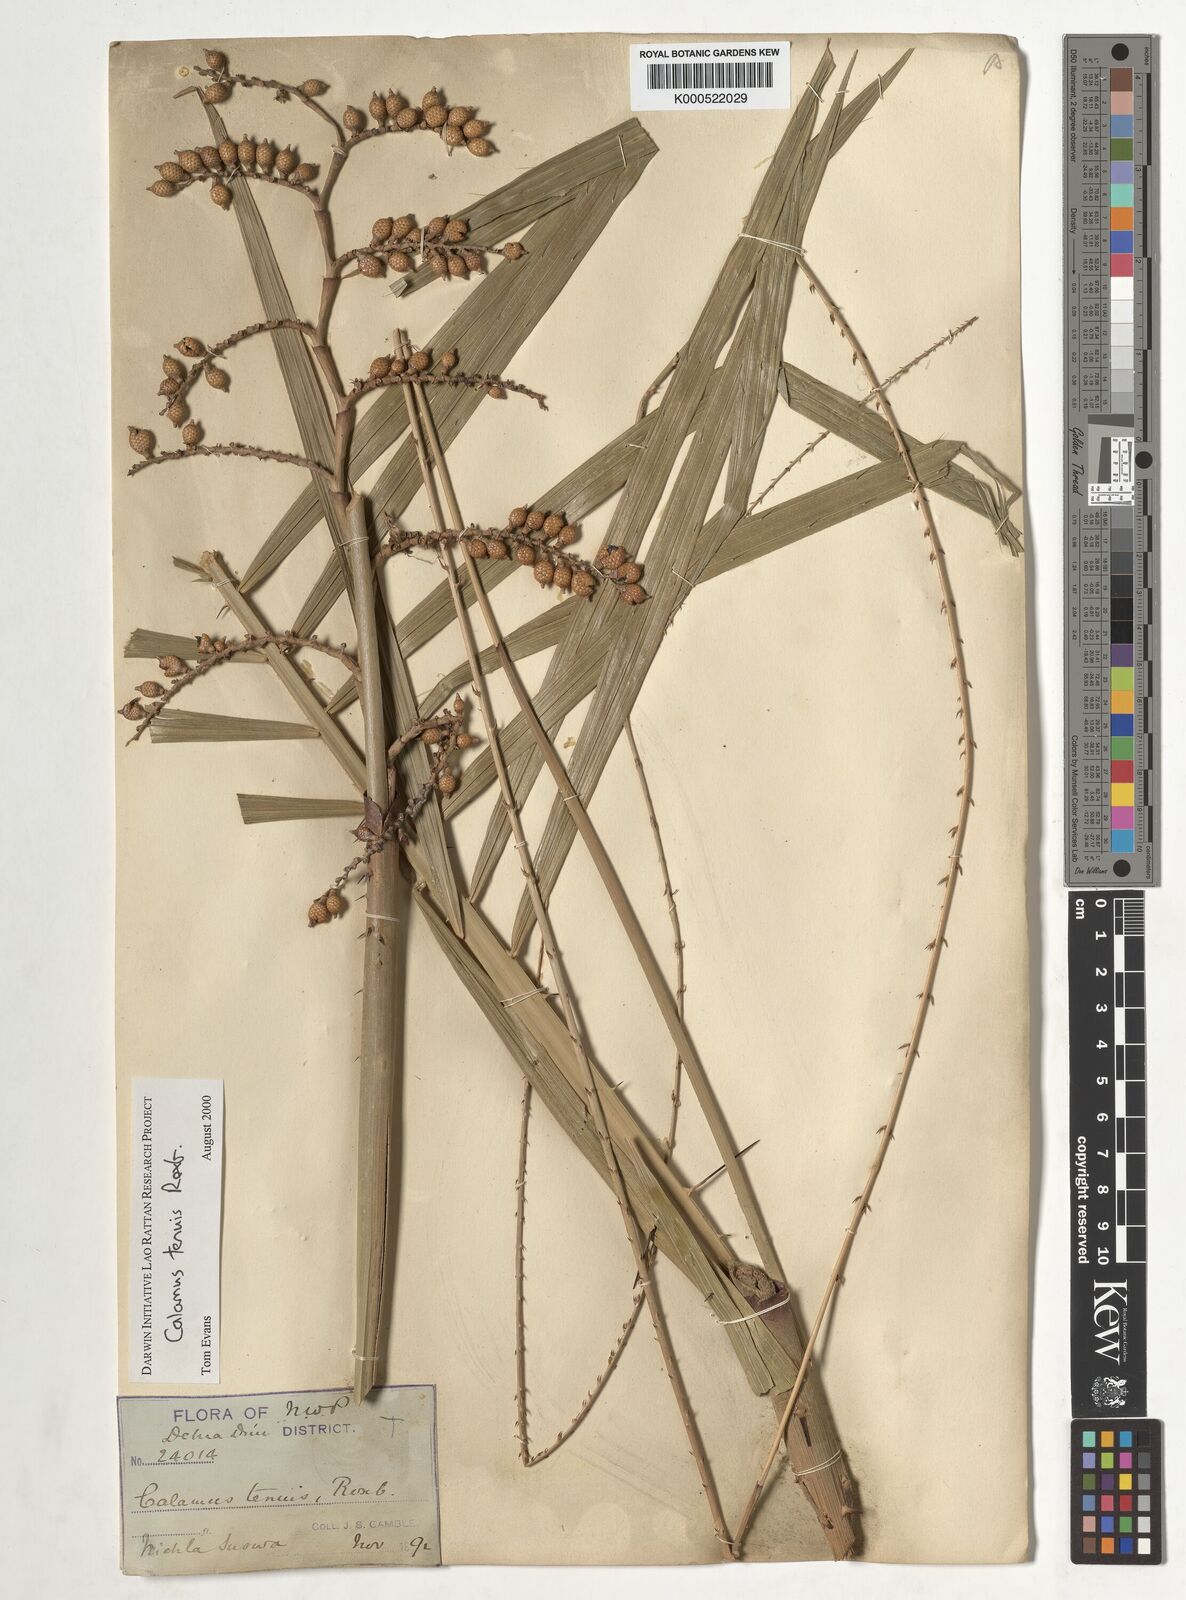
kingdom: Plantae
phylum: Tracheophyta
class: Liliopsida
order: Arecales
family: Arecaceae
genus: Calamus
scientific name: Calamus tenuis
